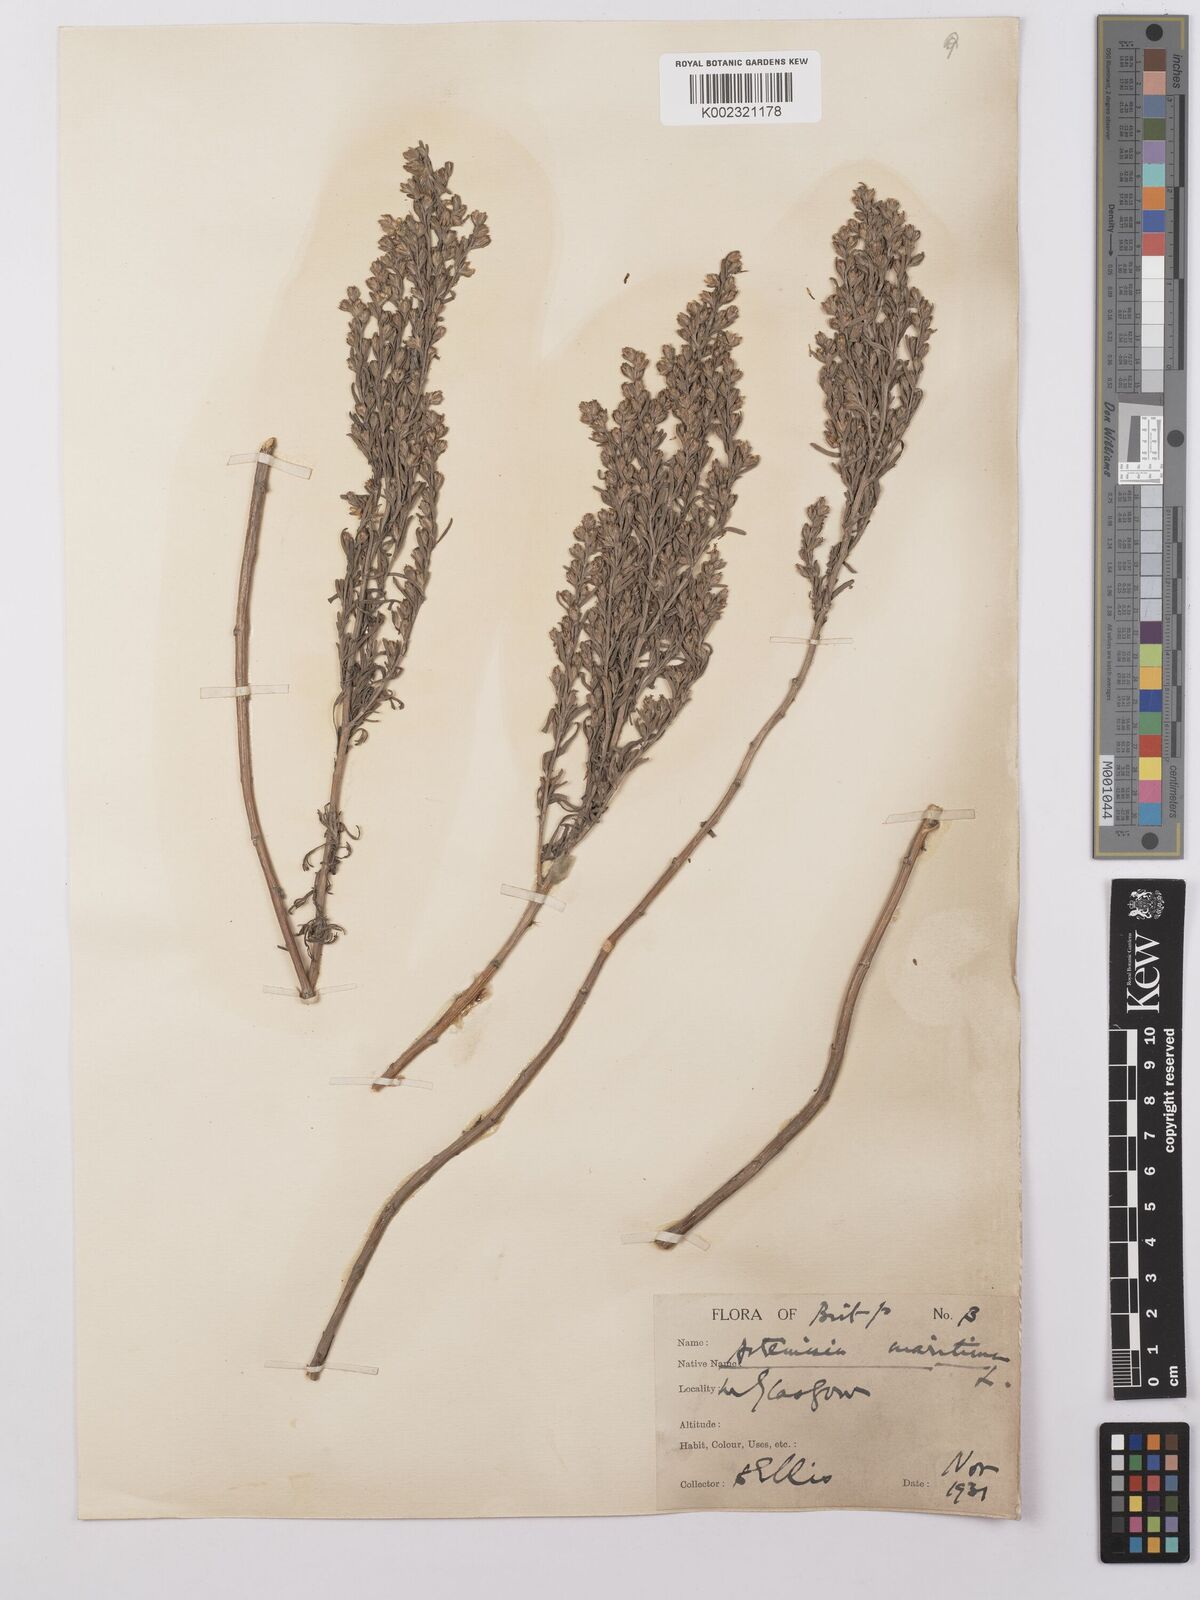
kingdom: Plantae
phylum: Tracheophyta
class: Magnoliopsida
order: Asterales
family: Asteraceae
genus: Artemisia
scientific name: Artemisia maritima
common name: Wormseed
